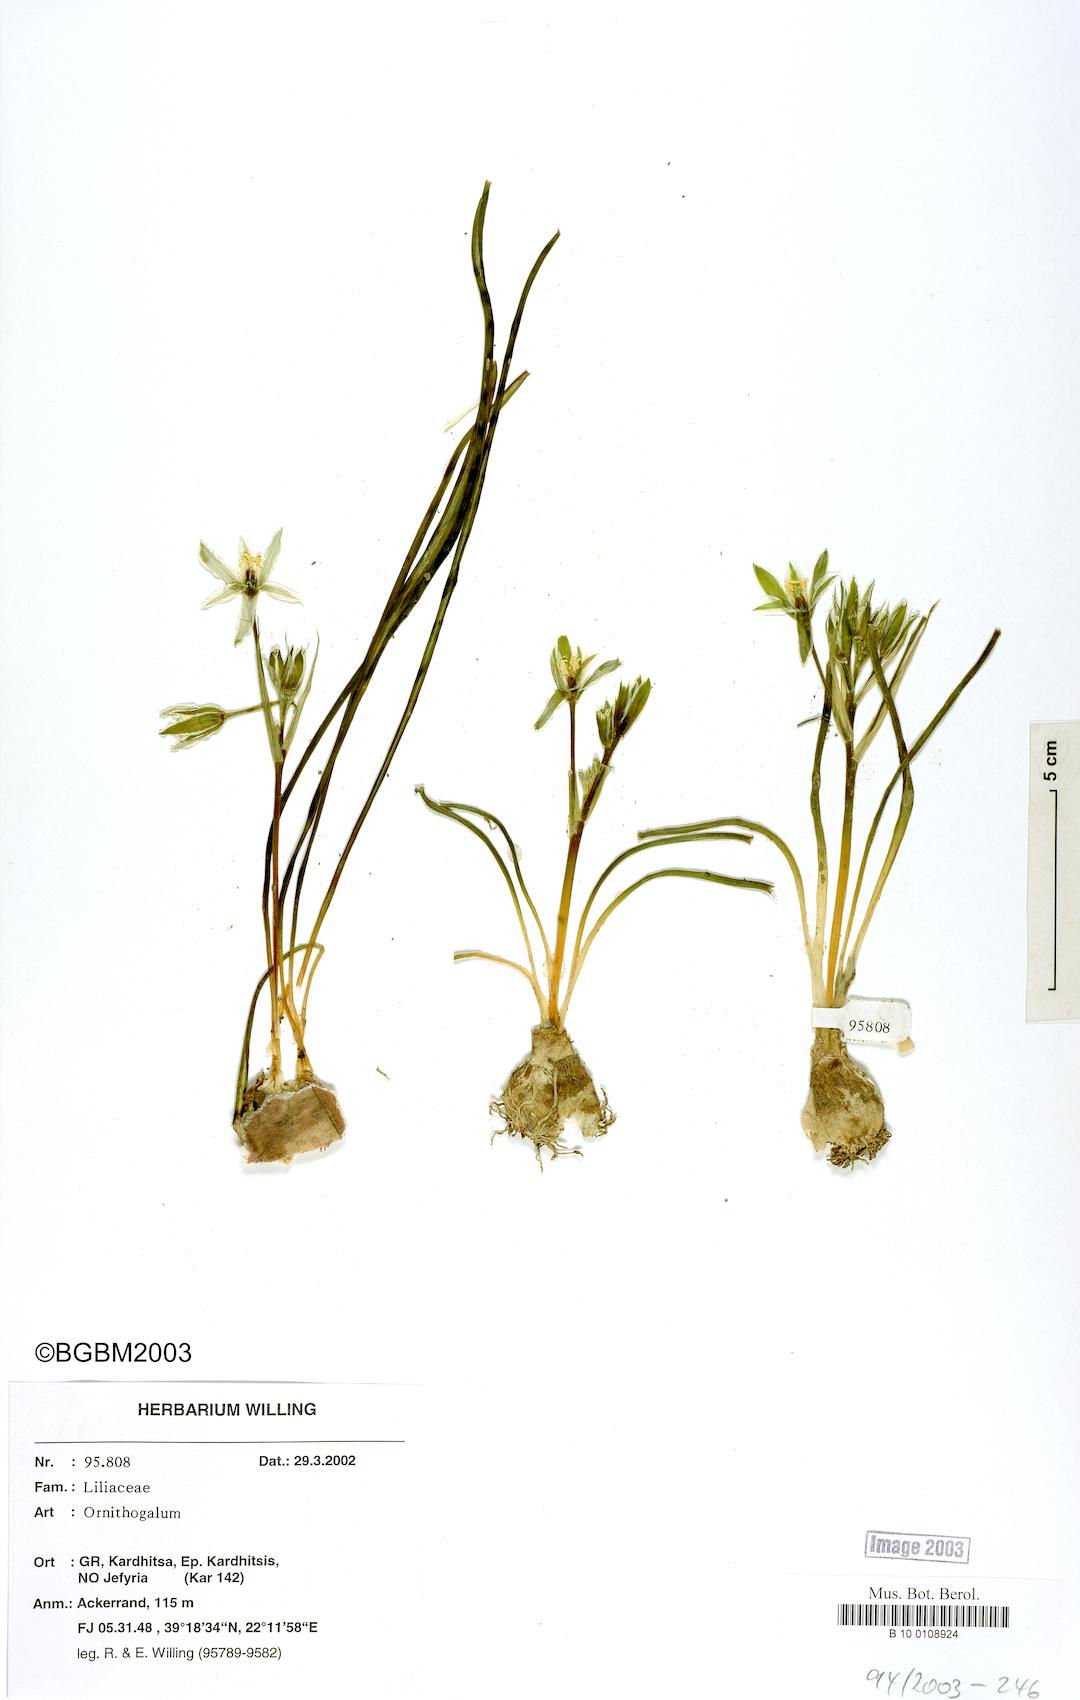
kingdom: Plantae
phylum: Tracheophyta
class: Liliopsida
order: Asparagales
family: Asparagaceae
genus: Ornithogalum
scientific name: Ornithogalum
